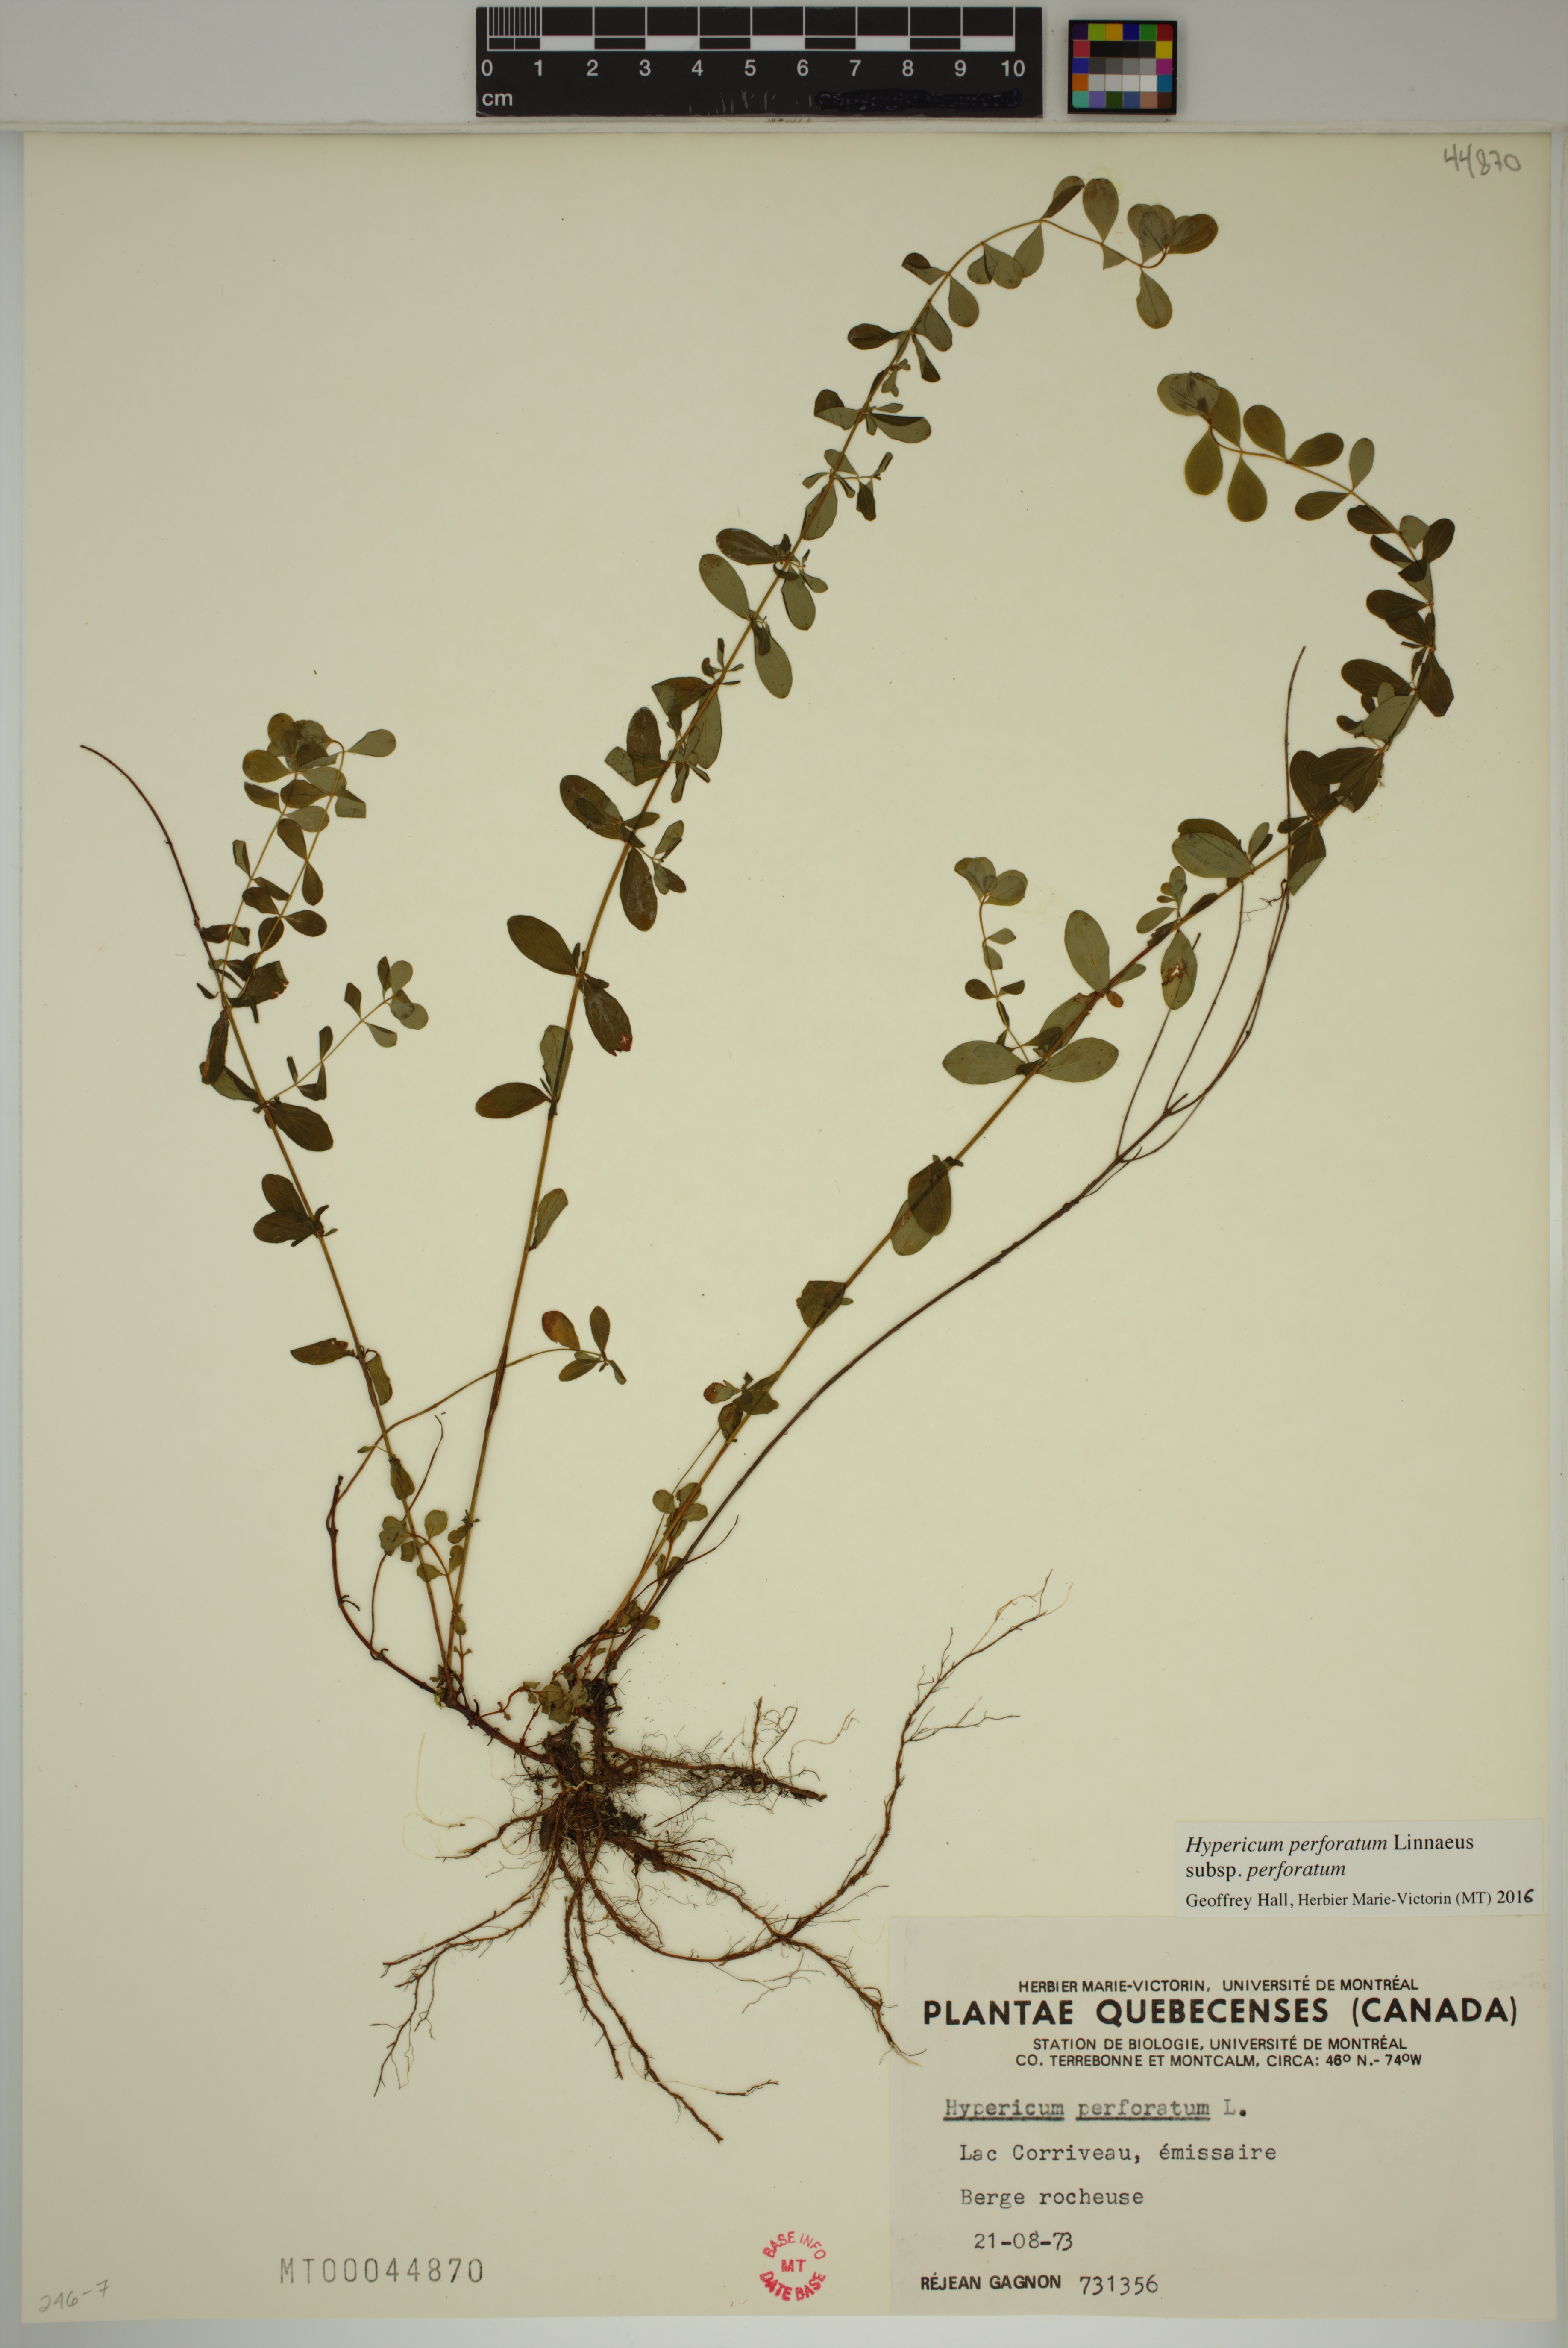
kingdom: Plantae
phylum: Tracheophyta
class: Magnoliopsida
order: Malpighiales
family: Hypericaceae
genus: Hypericum
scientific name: Hypericum perforatum
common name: Common st. johnswort
